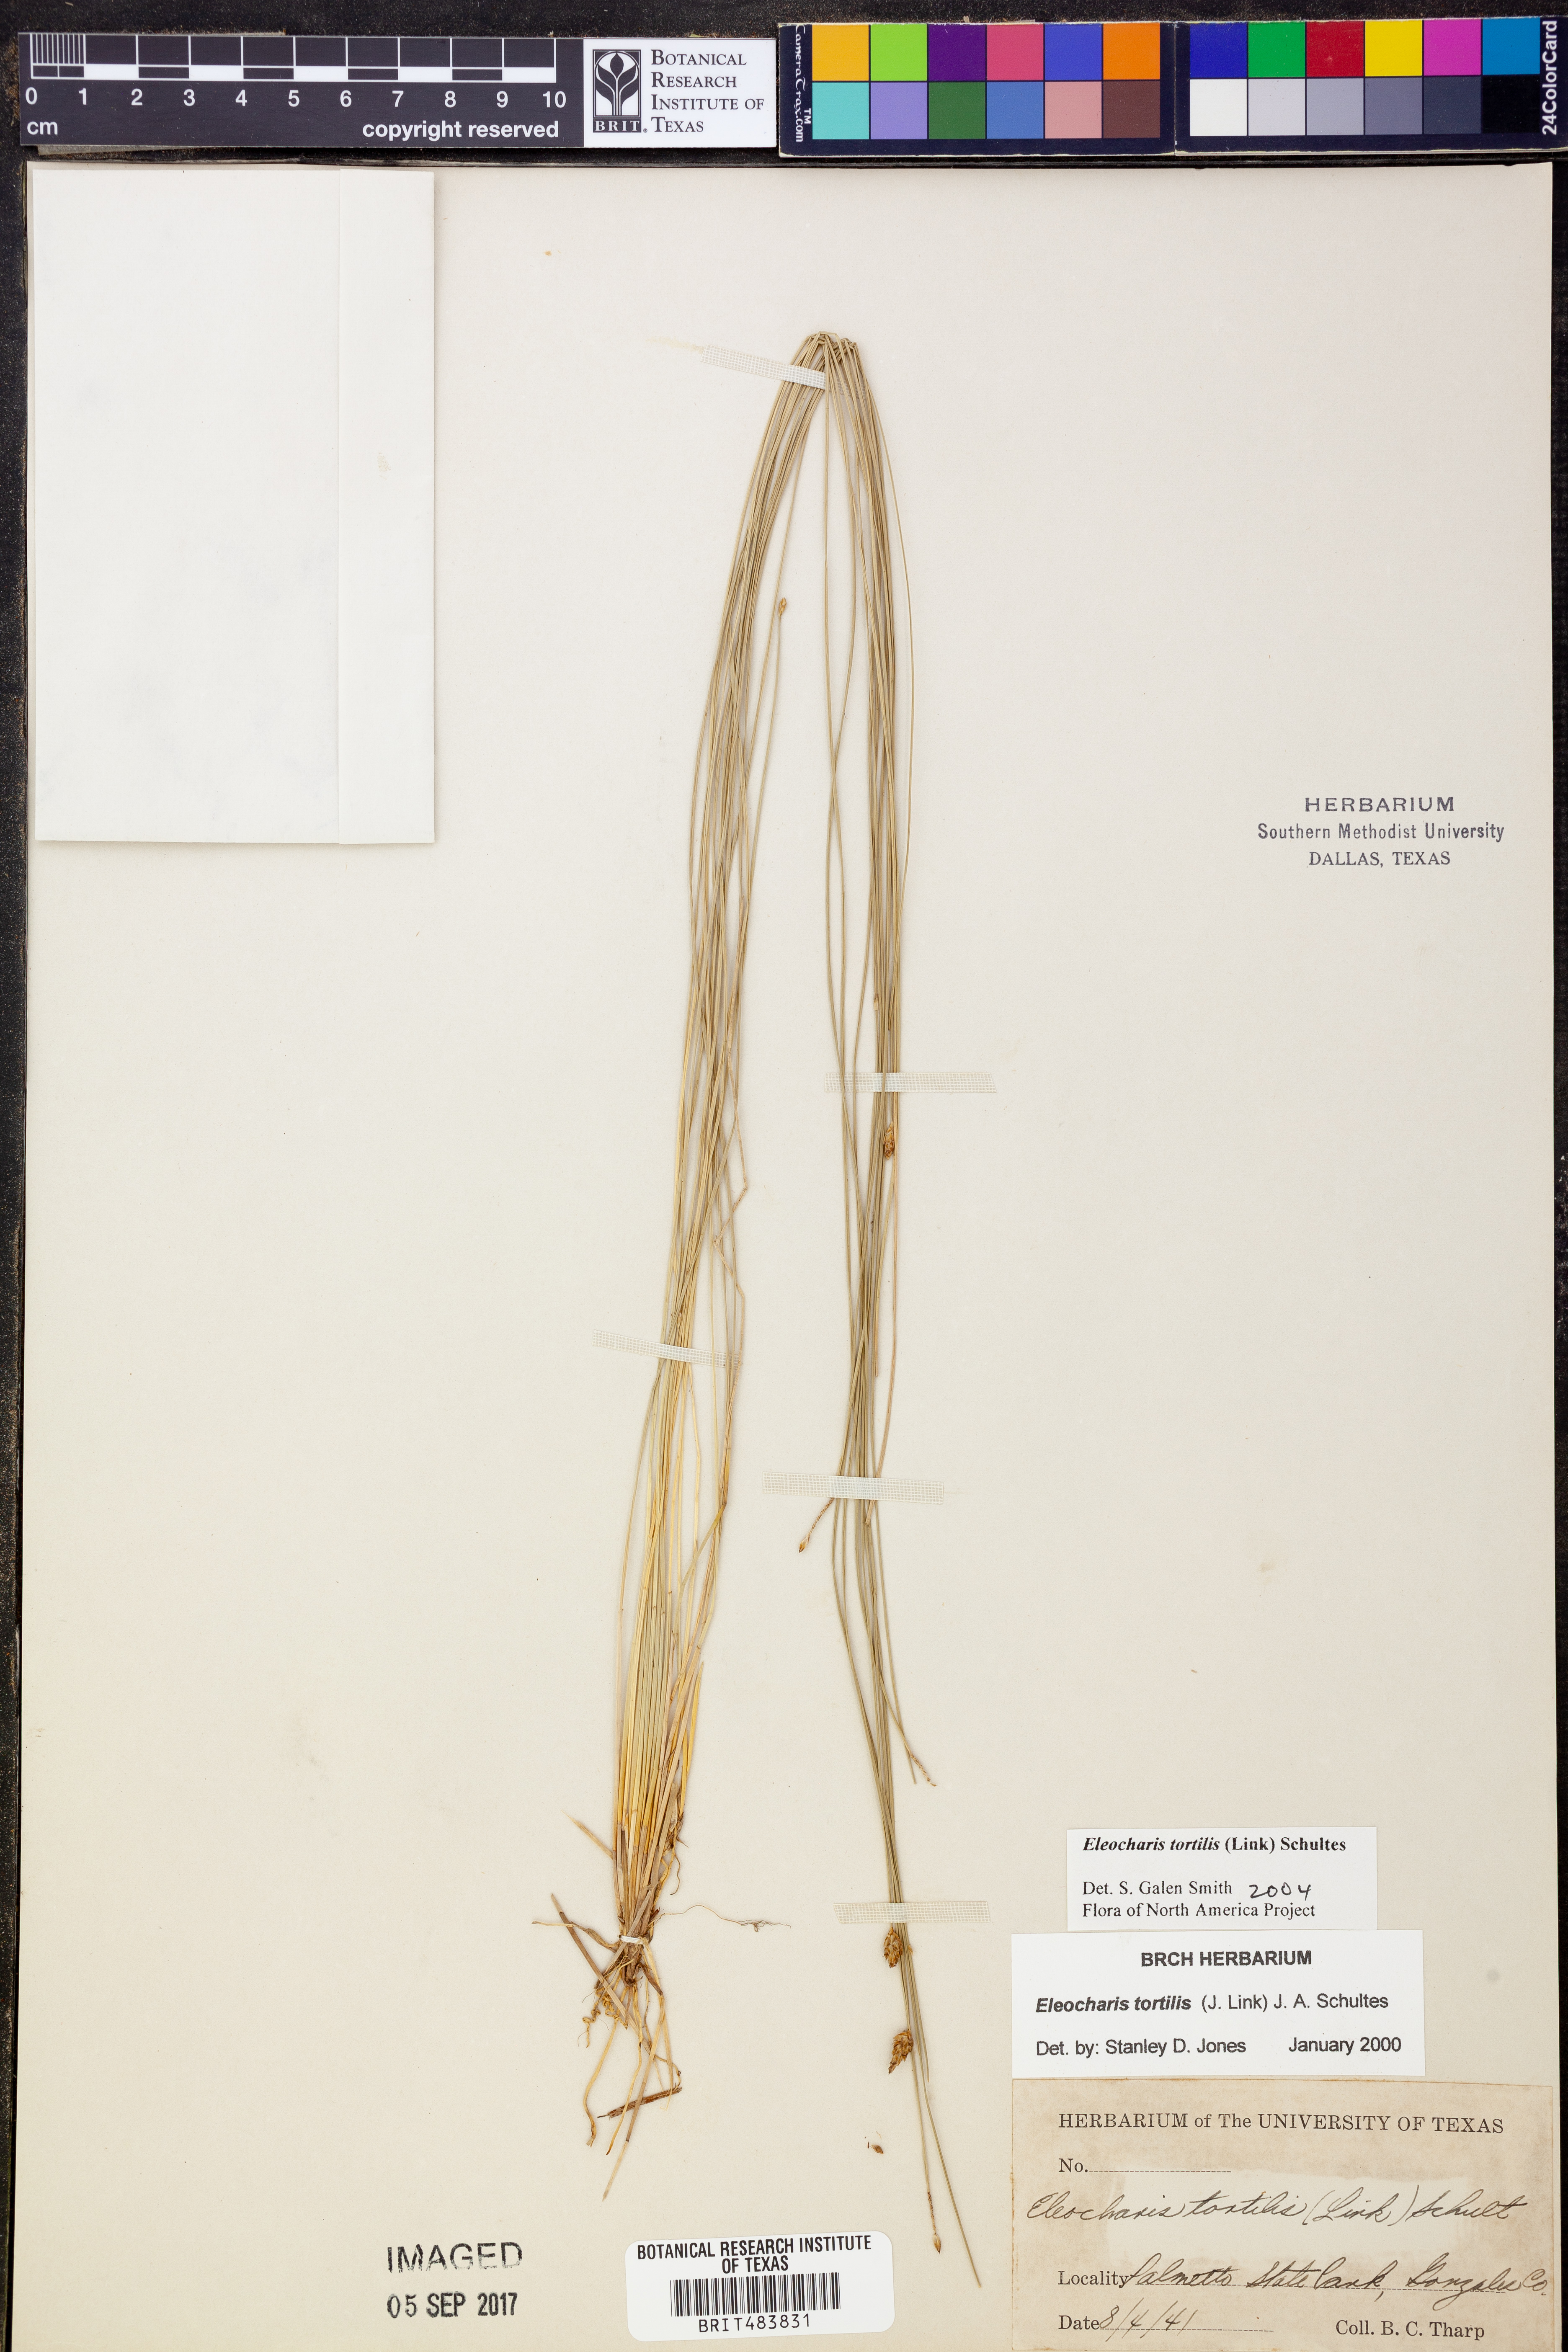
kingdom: Plantae
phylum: Tracheophyta
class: Liliopsida
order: Poales
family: Cyperaceae
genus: Eleocharis
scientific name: Eleocharis tortilis
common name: Twisted spike sedge
